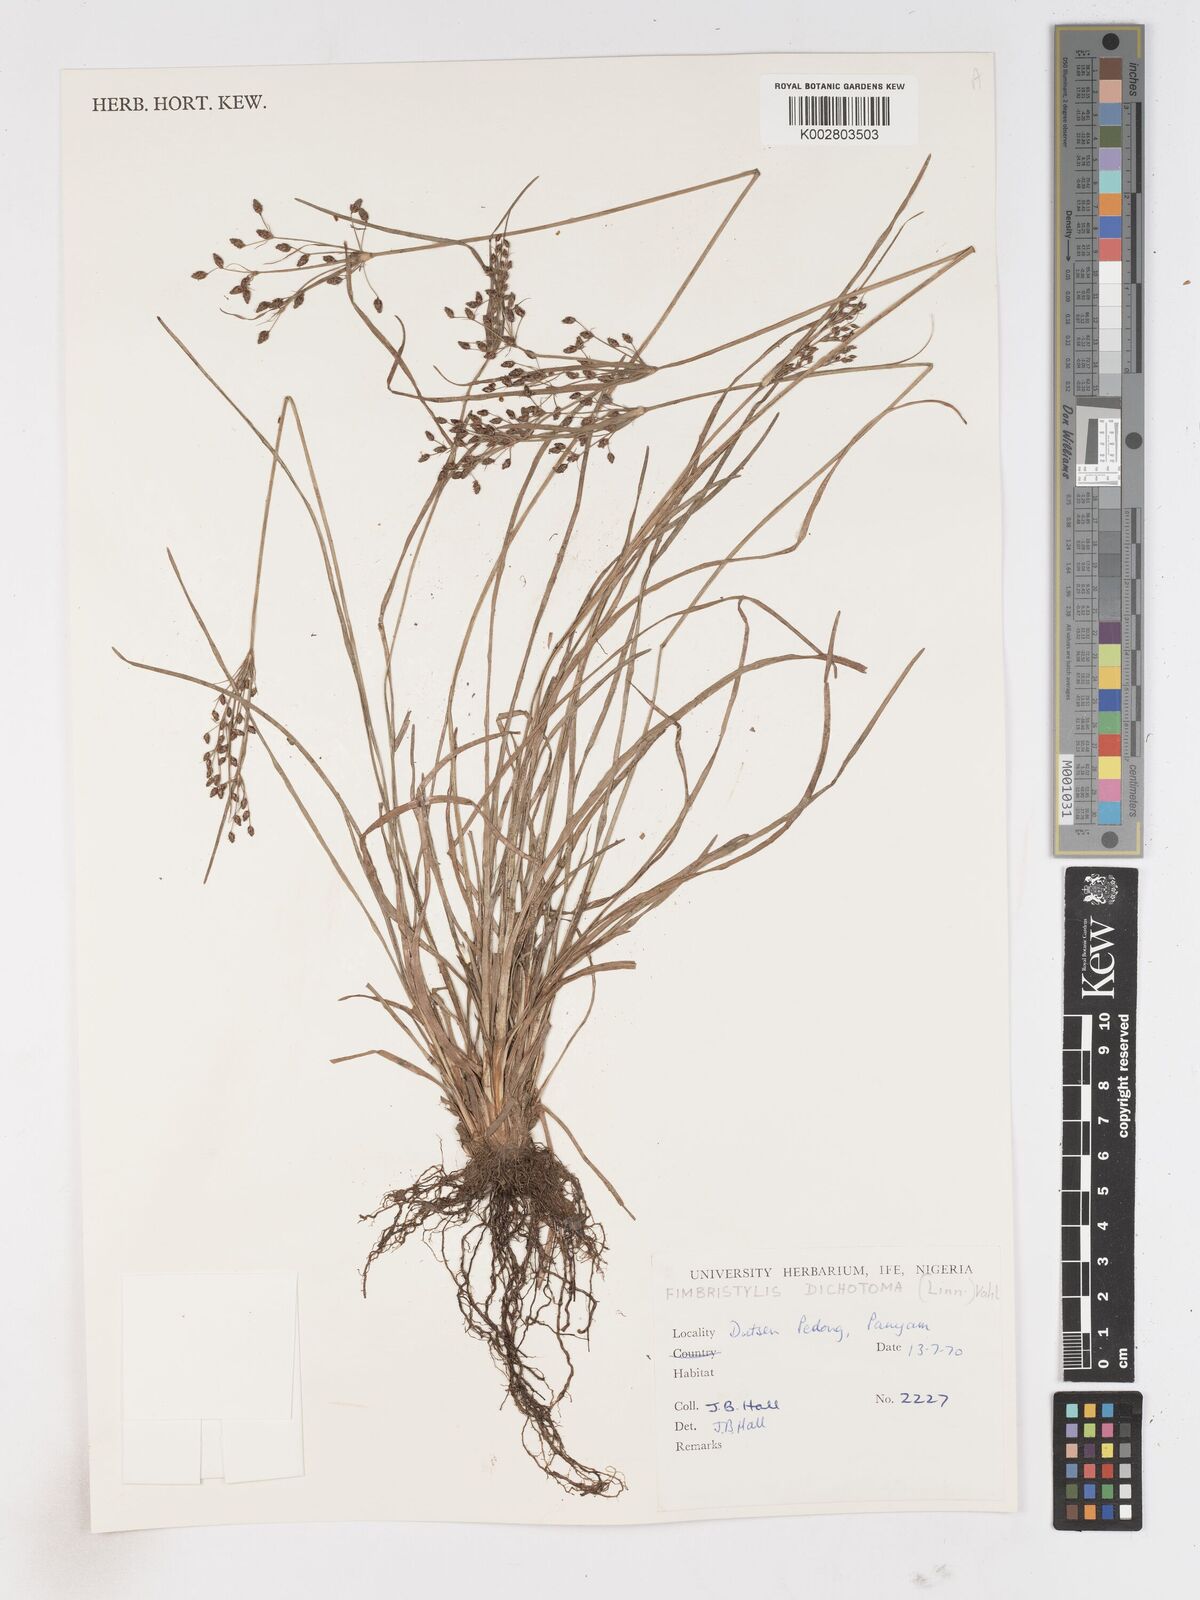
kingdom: Plantae
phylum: Tracheophyta
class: Liliopsida
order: Poales
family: Cyperaceae
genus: Fimbristylis
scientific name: Fimbristylis dichotoma
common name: Forked fimbry
